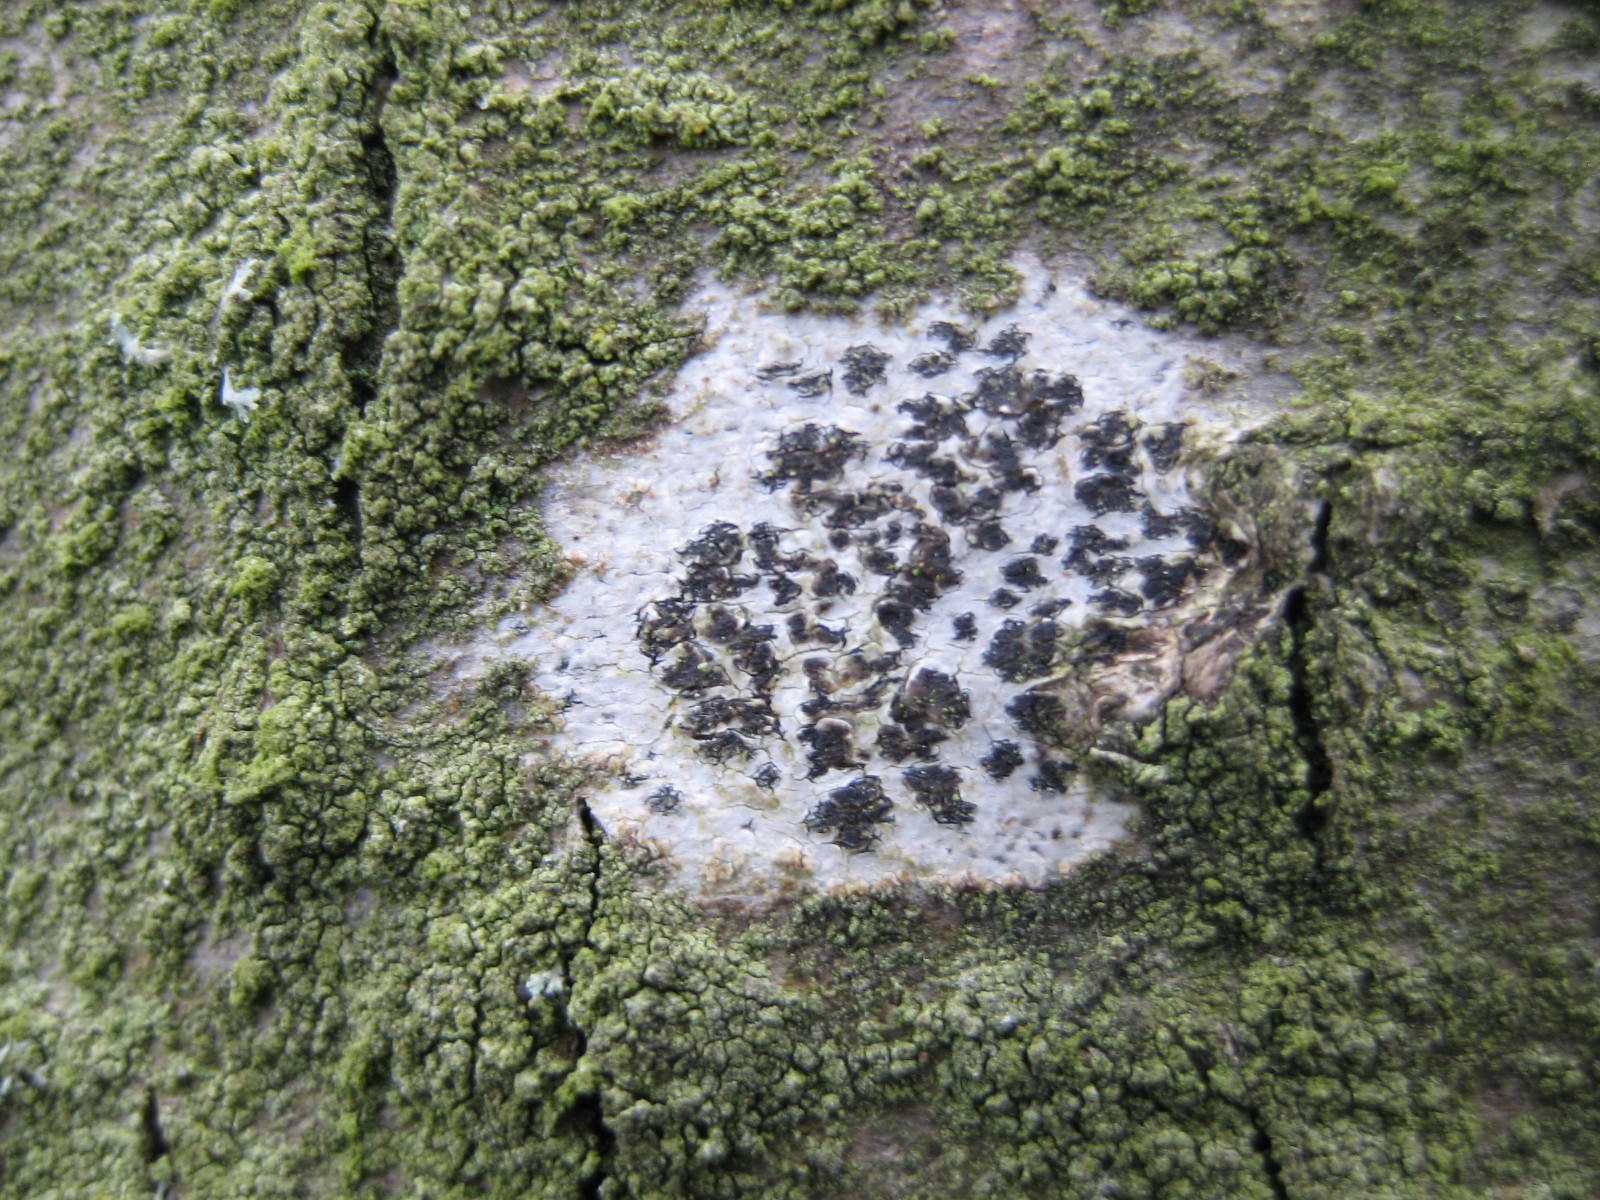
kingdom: Fungi
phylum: Ascomycota
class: Arthoniomycetes
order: Arthoniales
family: Arthoniaceae
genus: Arthonia
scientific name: Arthonia radiata
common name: stjerne-pletlav
